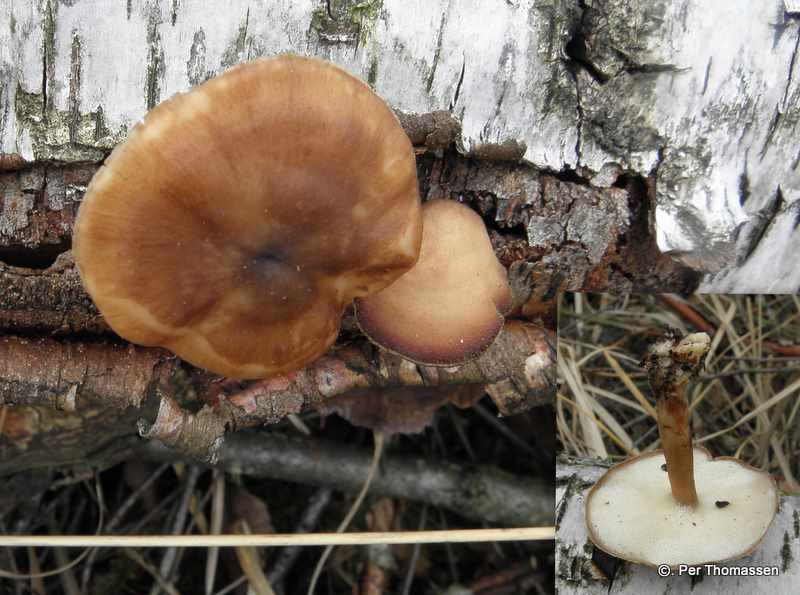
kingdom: Fungi
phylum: Basidiomycota
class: Agaricomycetes
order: Polyporales
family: Polyporaceae
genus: Lentinus
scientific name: Lentinus brumalis
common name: vinter-stilkporesvamp
